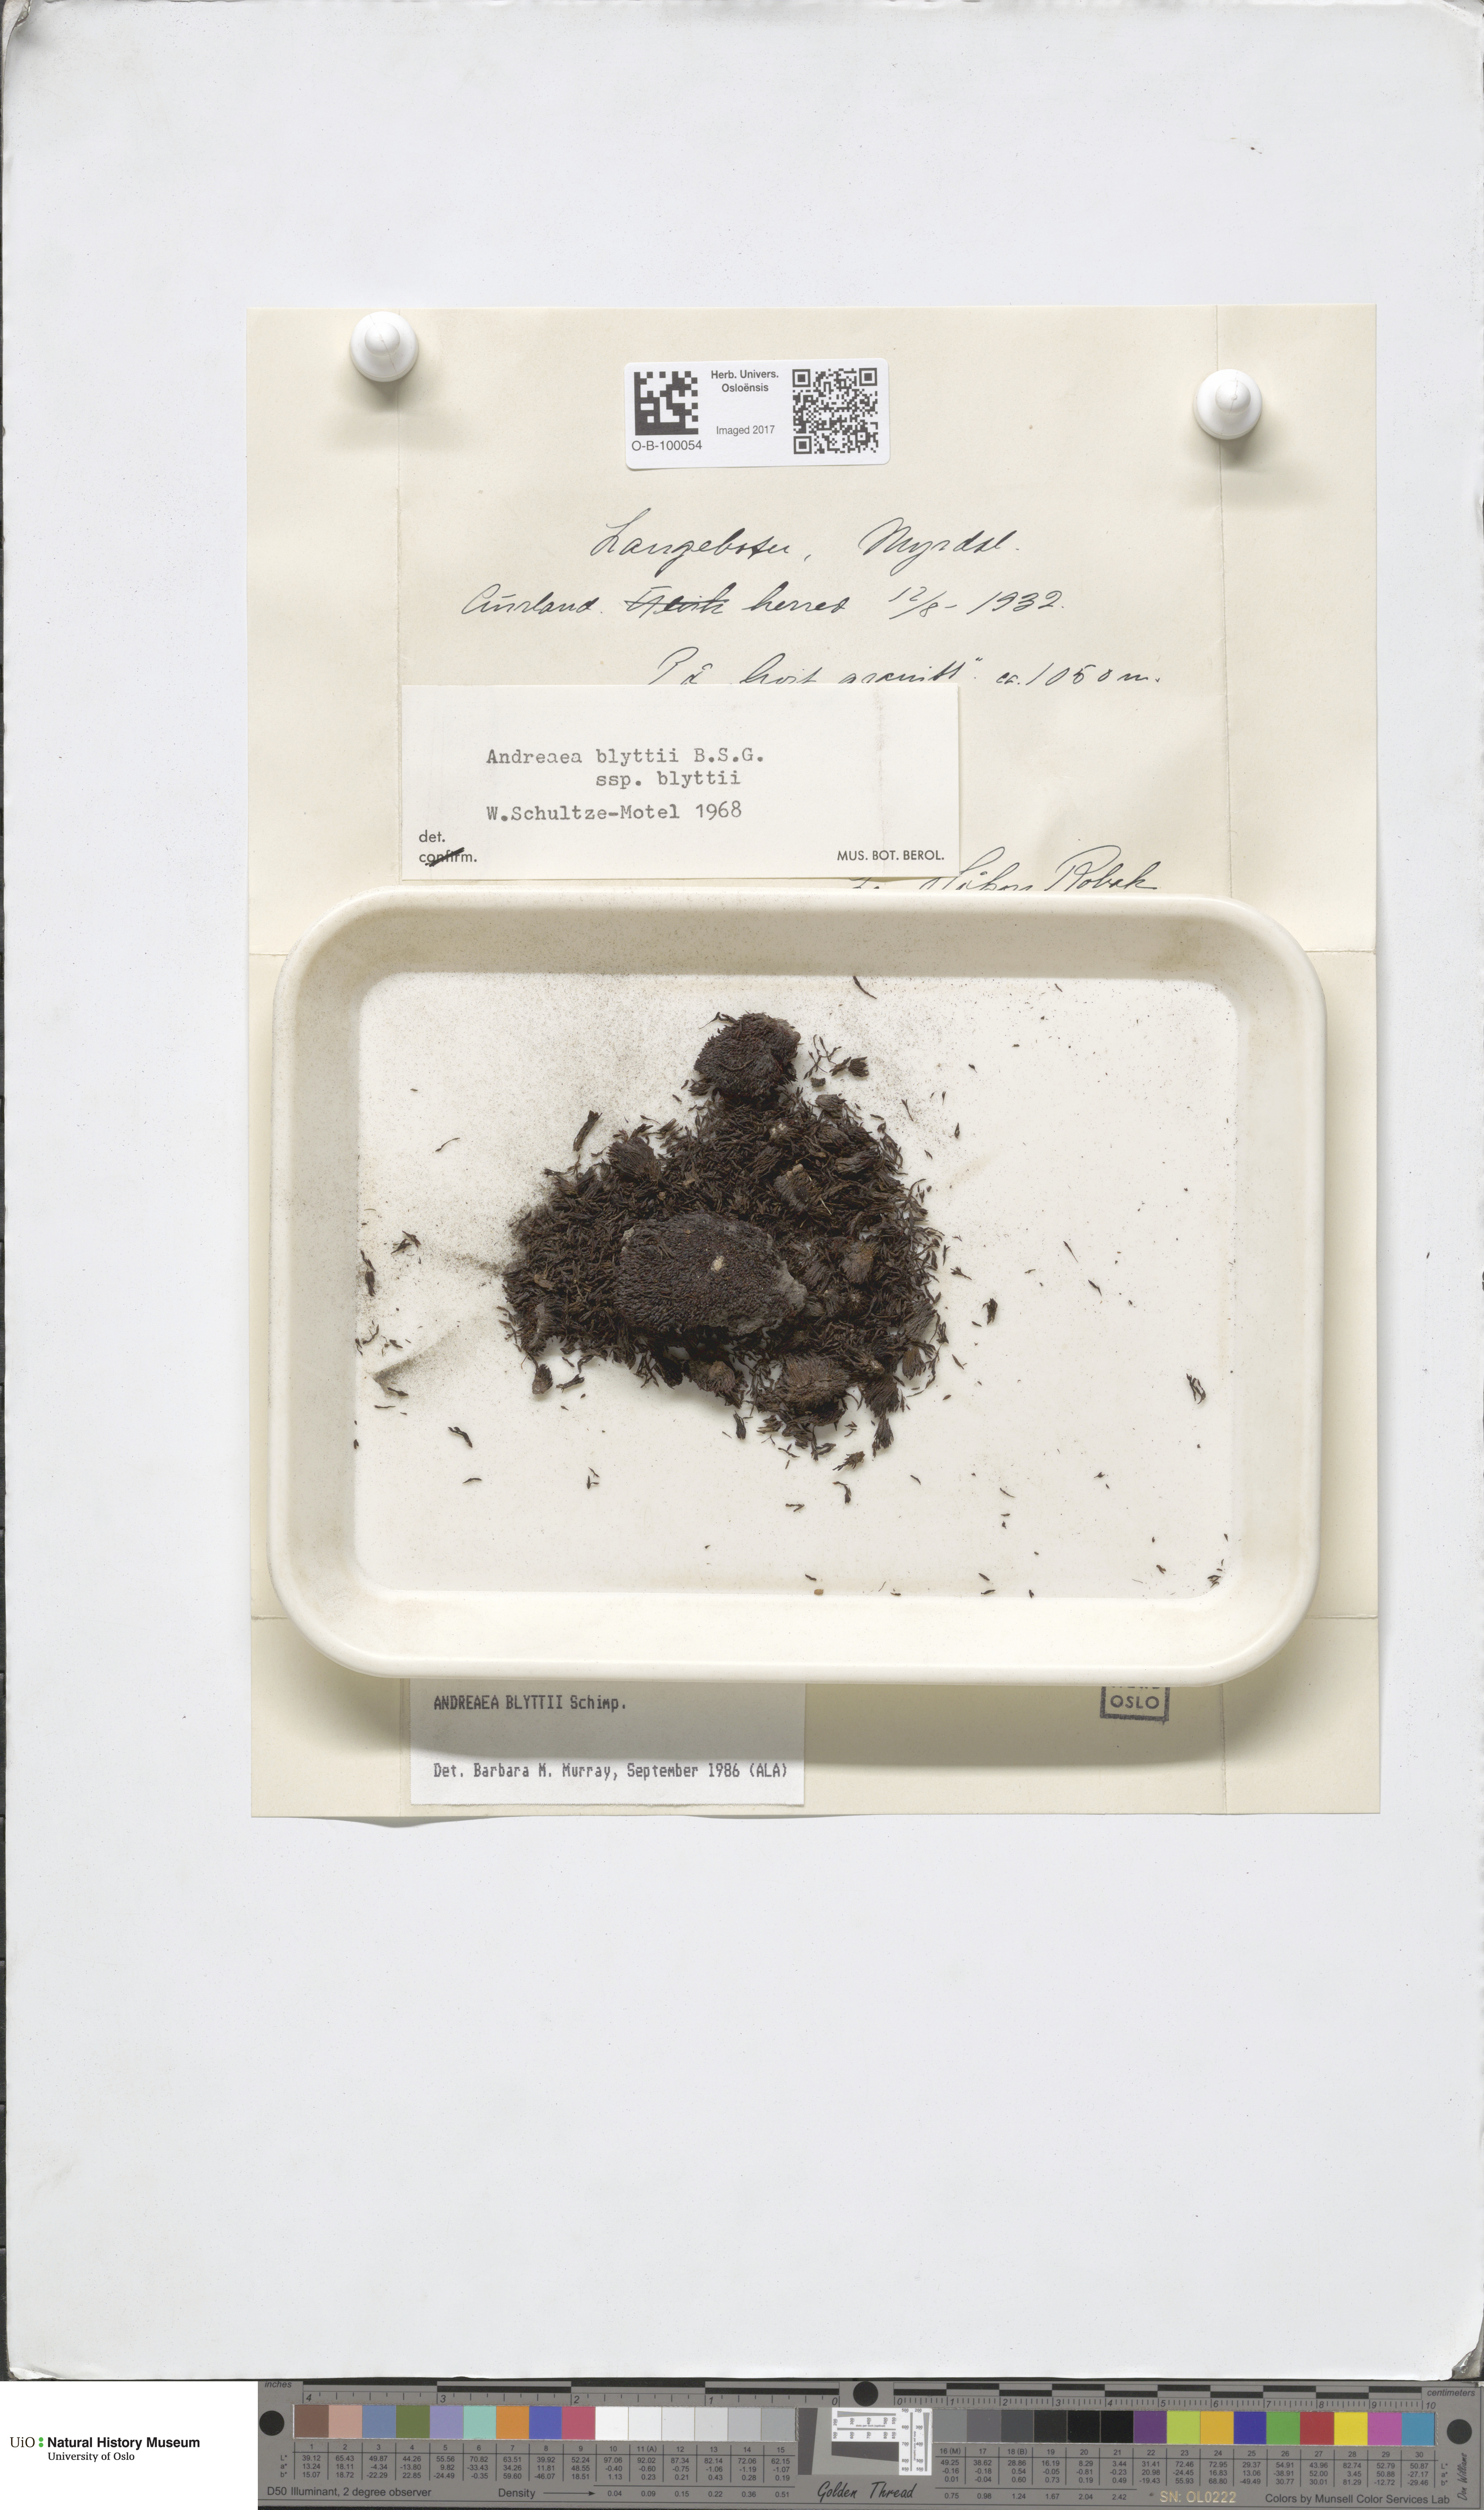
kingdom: Plantae
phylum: Bryophyta
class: Andreaeopsida
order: Andreaeales
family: Andreaeaceae
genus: Andreaea
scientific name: Andreaea blyttii
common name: Blytt's rock moss
